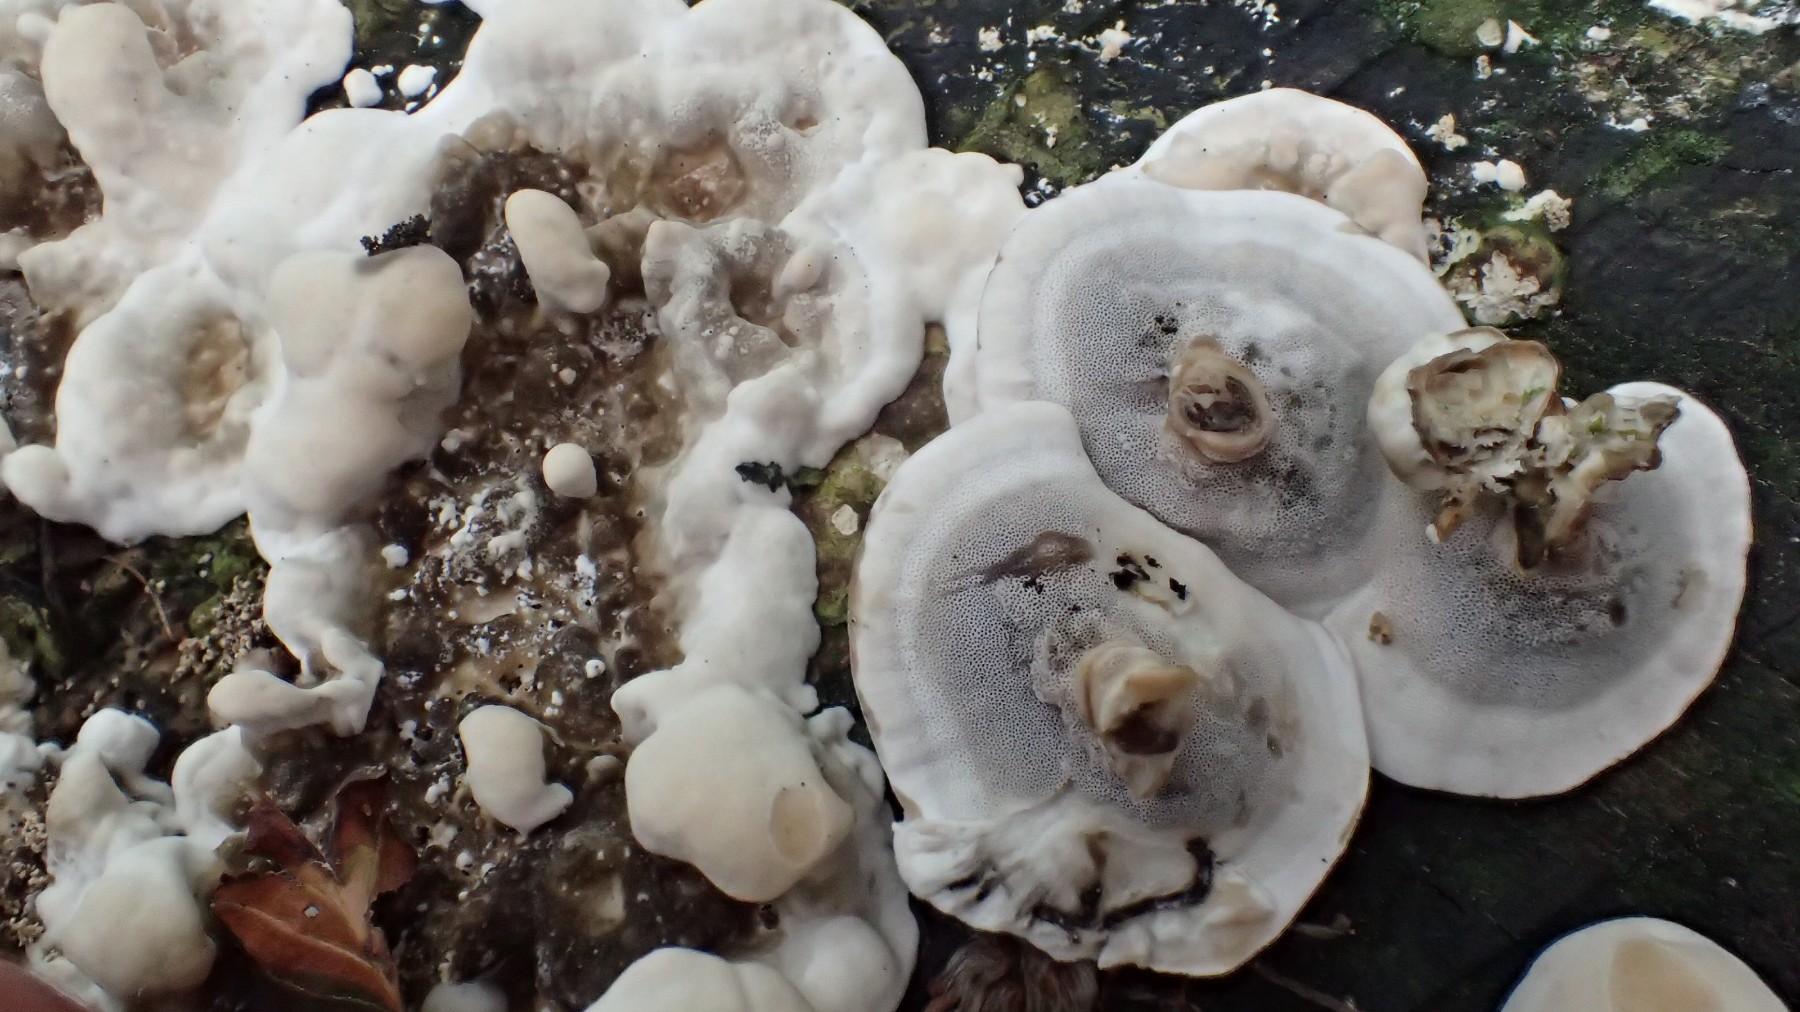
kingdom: Fungi
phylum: Basidiomycota
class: Agaricomycetes
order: Polyporales
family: Phanerochaetaceae
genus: Bjerkandera
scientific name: Bjerkandera adusta
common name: sveden sodporesvamp
